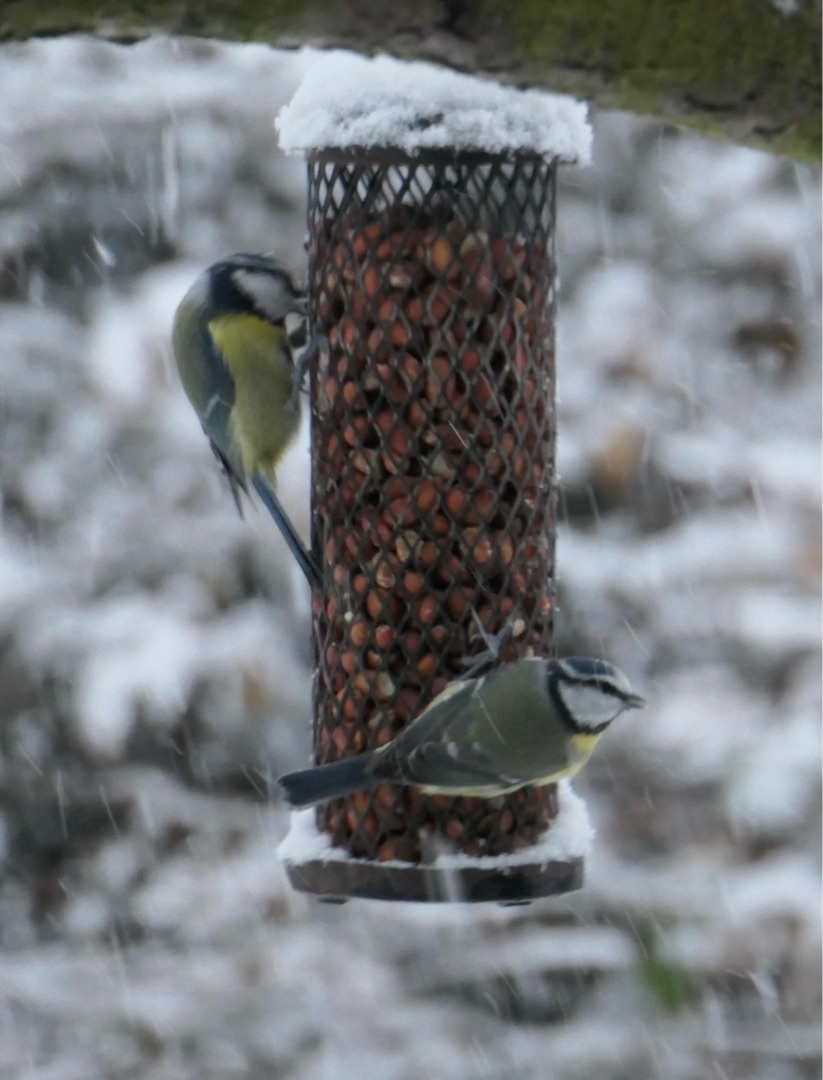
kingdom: Animalia
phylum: Chordata
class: Aves
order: Passeriformes
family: Paridae
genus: Cyanistes
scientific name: Cyanistes caeruleus
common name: Blåmejse
